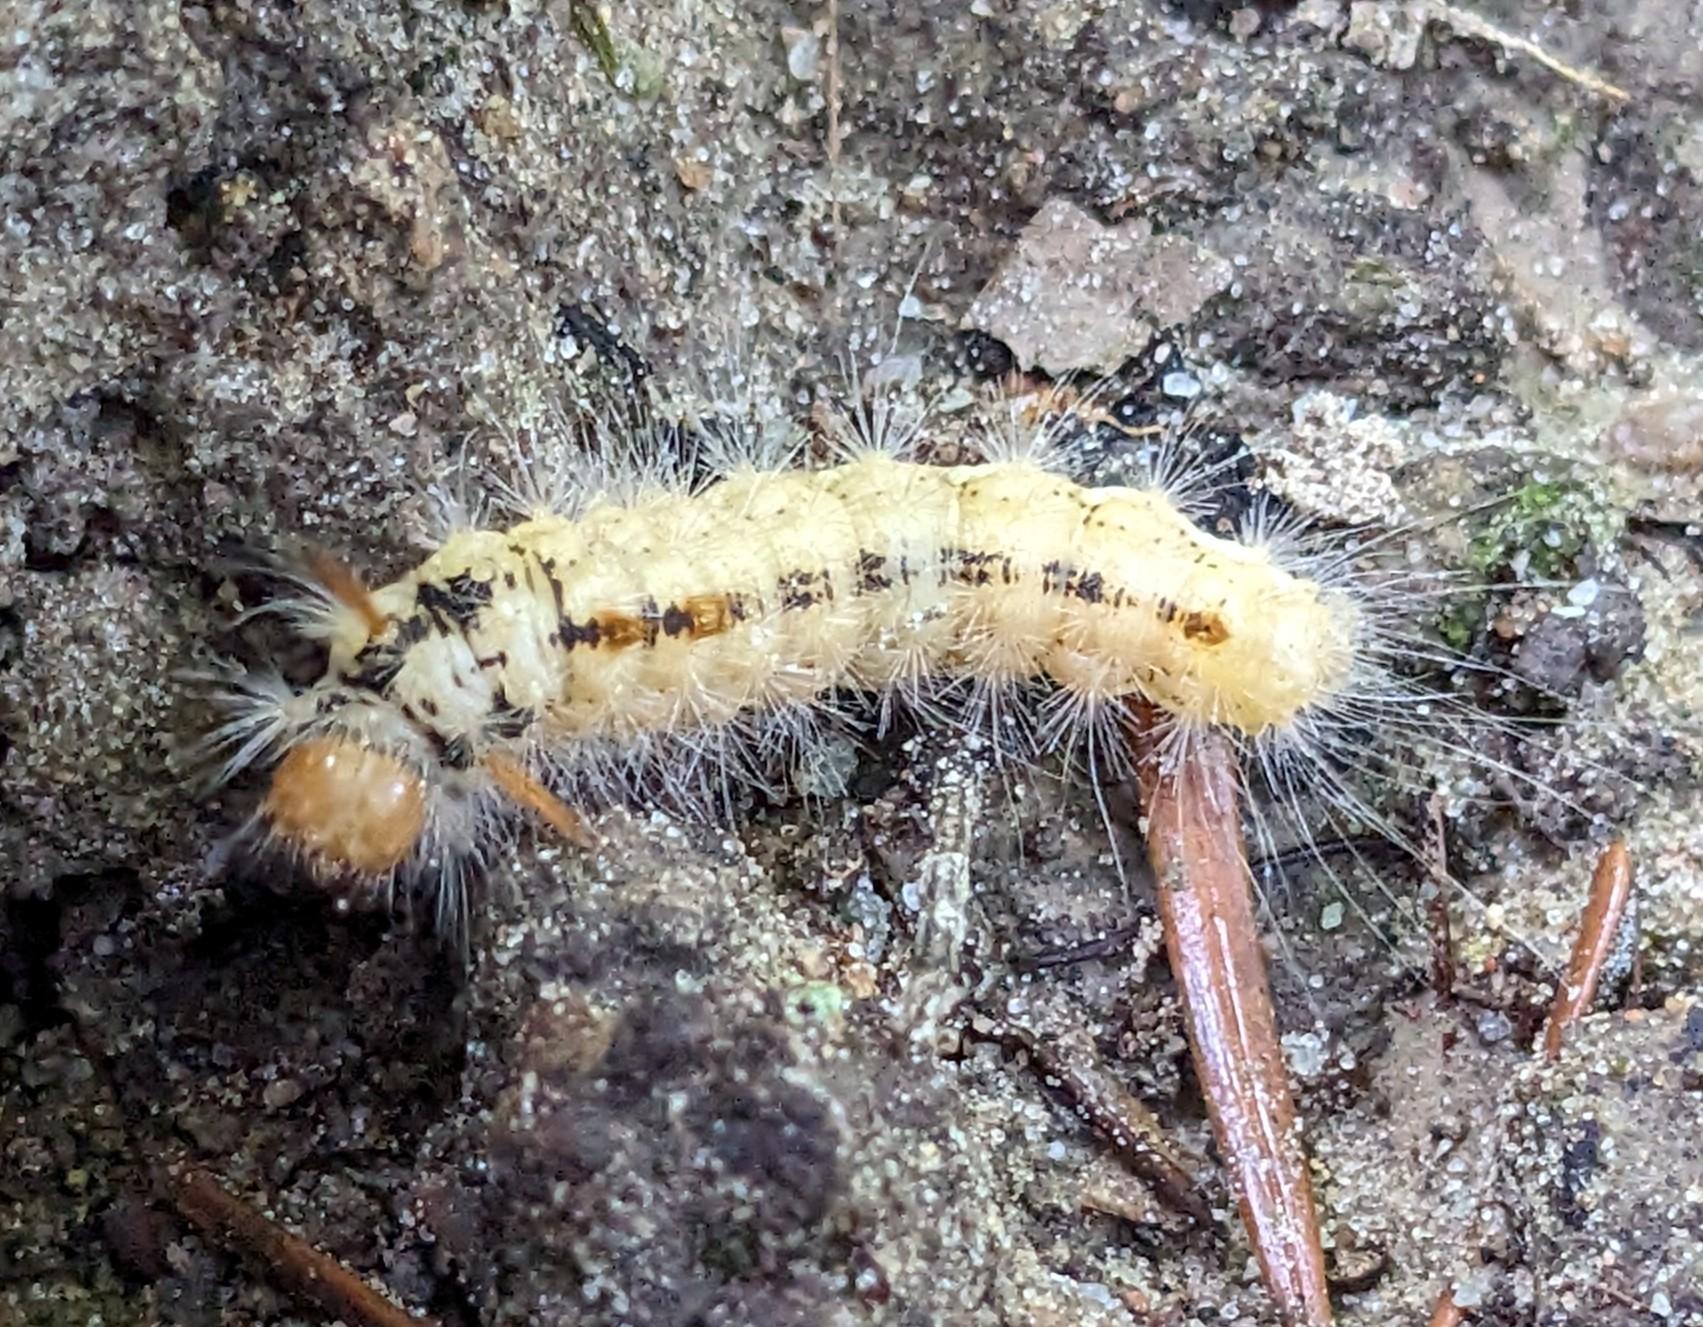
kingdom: Animalia
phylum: Arthropoda
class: Insecta
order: Lepidoptera
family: Noctuidae
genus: Colocasia
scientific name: Colocasia coryli
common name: Penselugle
